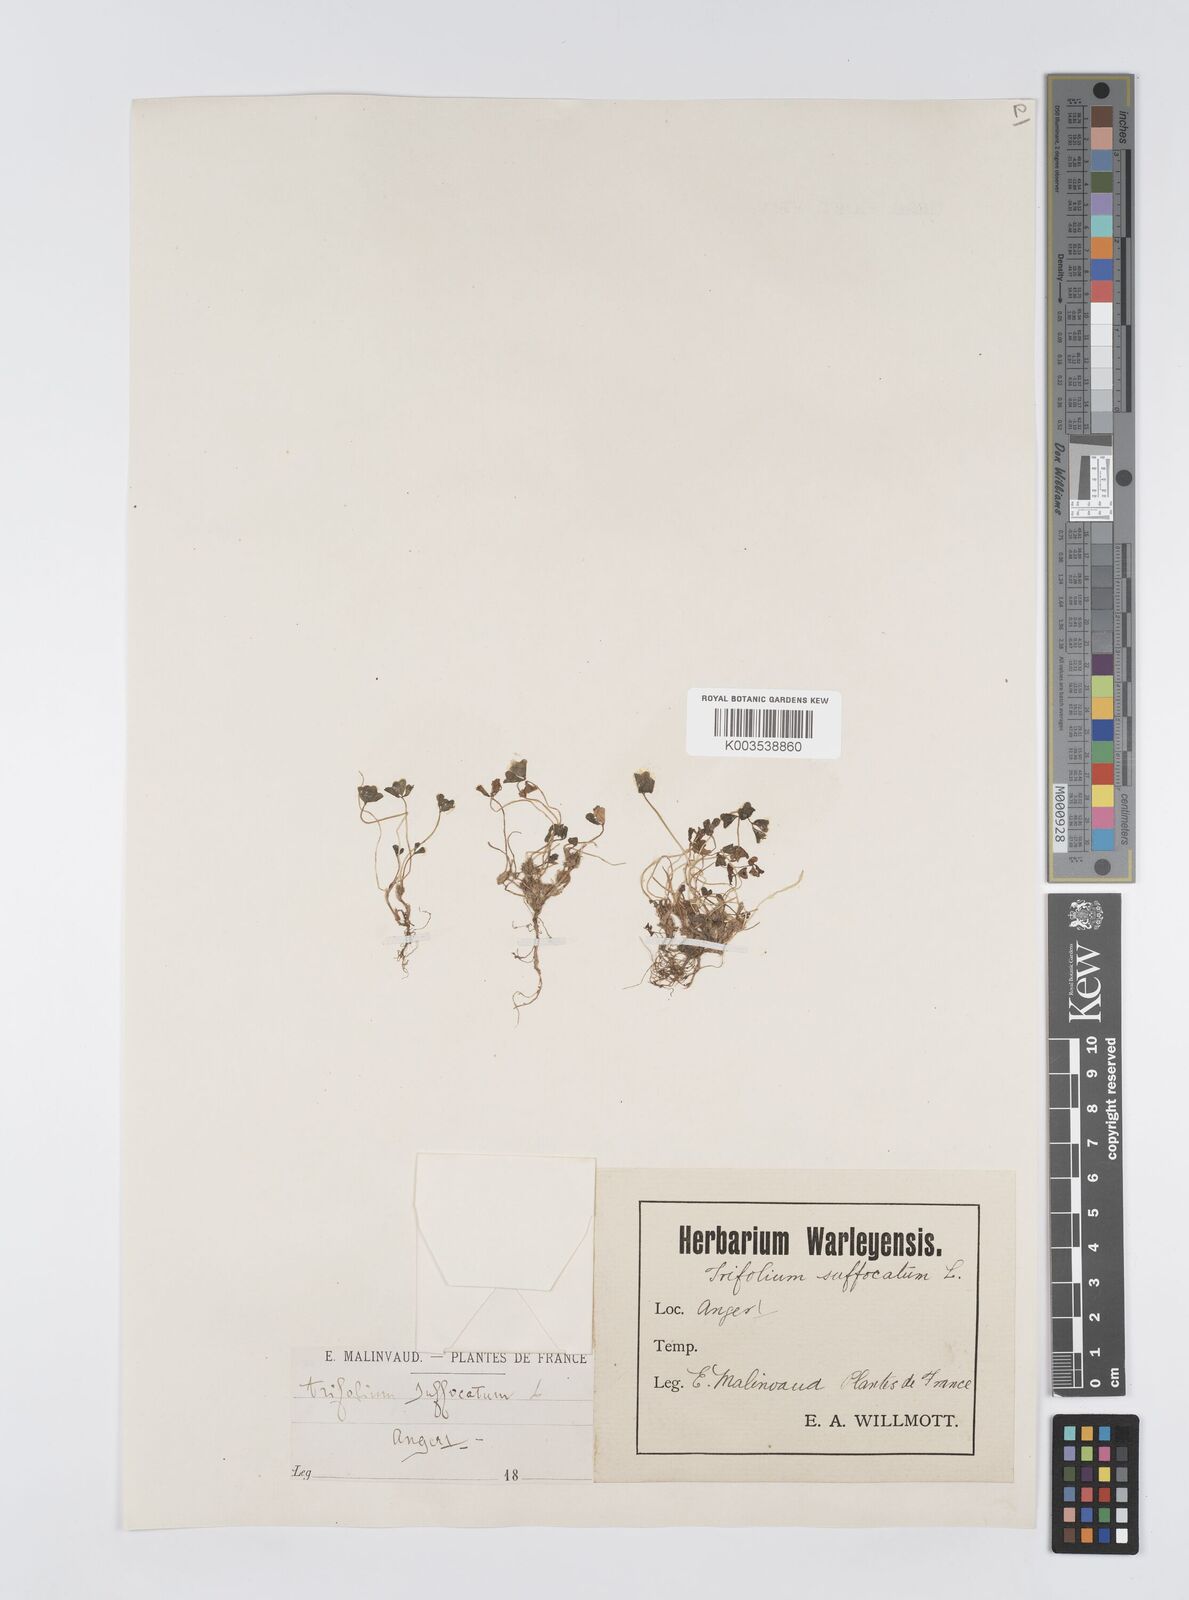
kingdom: Plantae
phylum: Tracheophyta
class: Magnoliopsida
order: Fabales
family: Fabaceae
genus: Trifolium
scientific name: Trifolium suffocatum
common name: Suffocated clover
